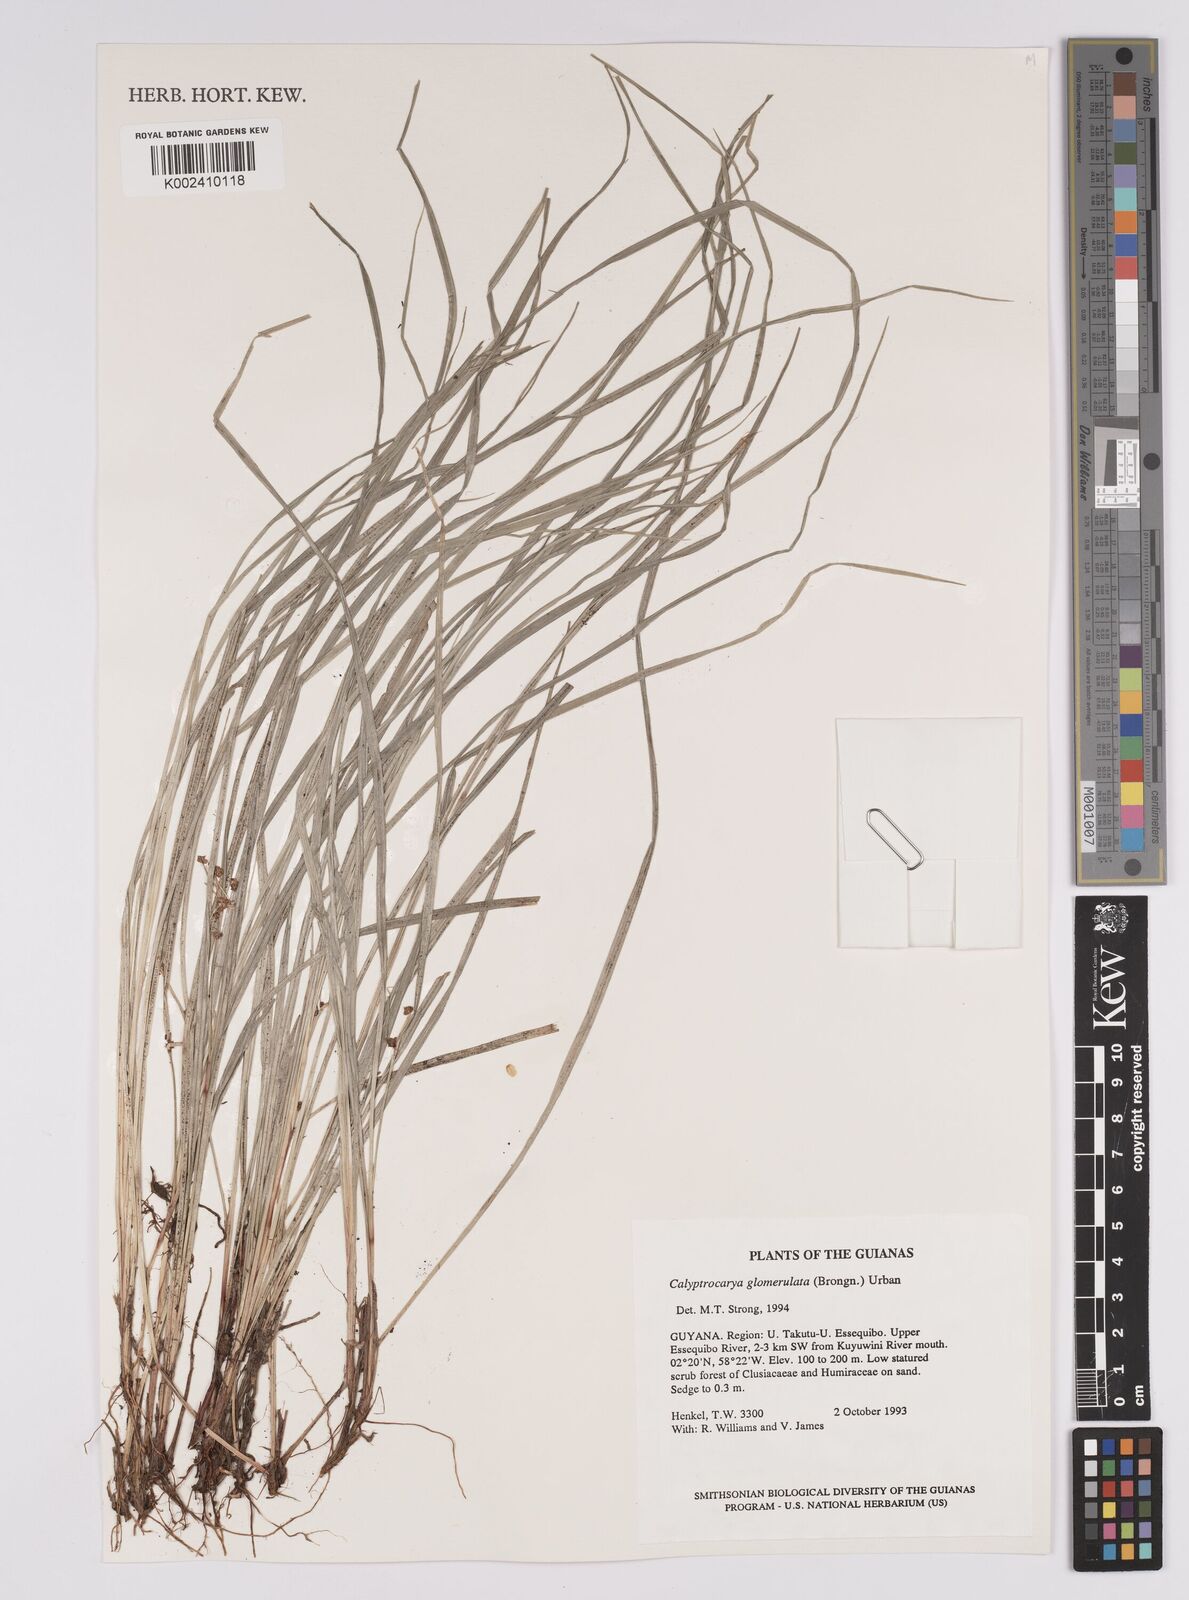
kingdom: Plantae
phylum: Tracheophyta
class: Liliopsida
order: Poales
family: Cyperaceae
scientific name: Cyperaceae
